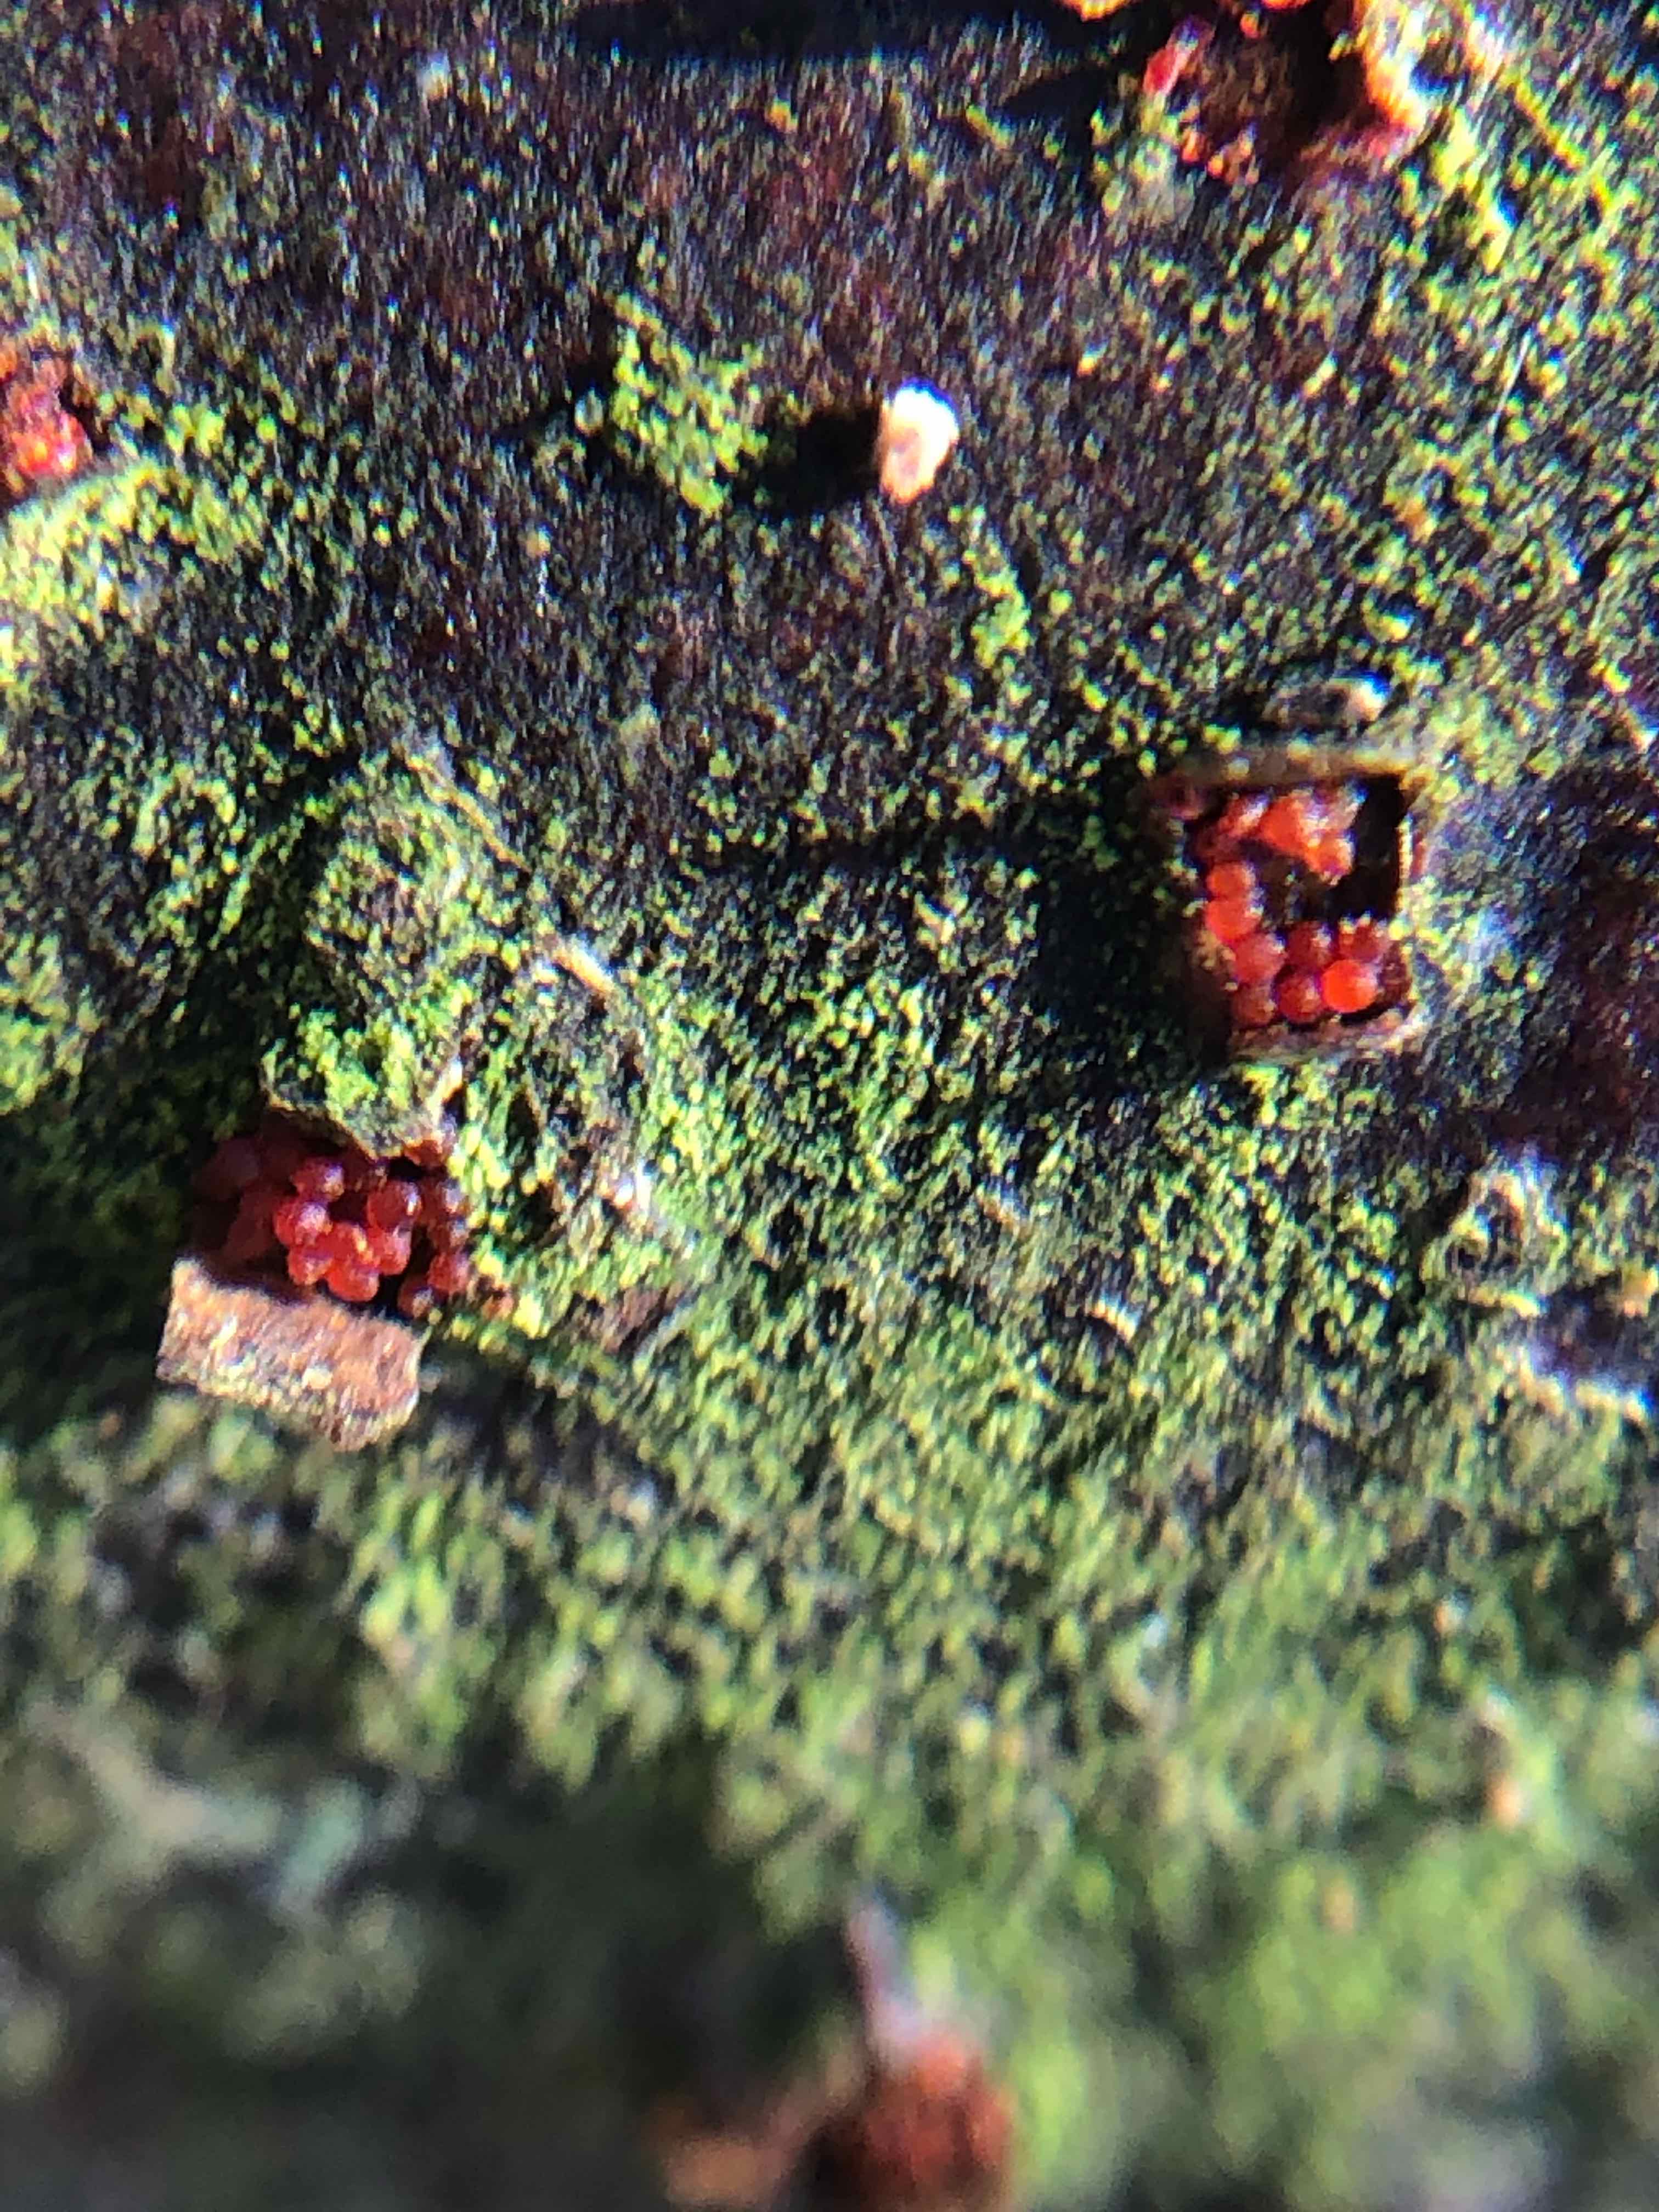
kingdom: Fungi
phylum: Ascomycota
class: Sordariomycetes
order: Hypocreales
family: Nectriaceae
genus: Neonectria
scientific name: Neonectria coccinea
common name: bøgebark-cinnobersvamp
